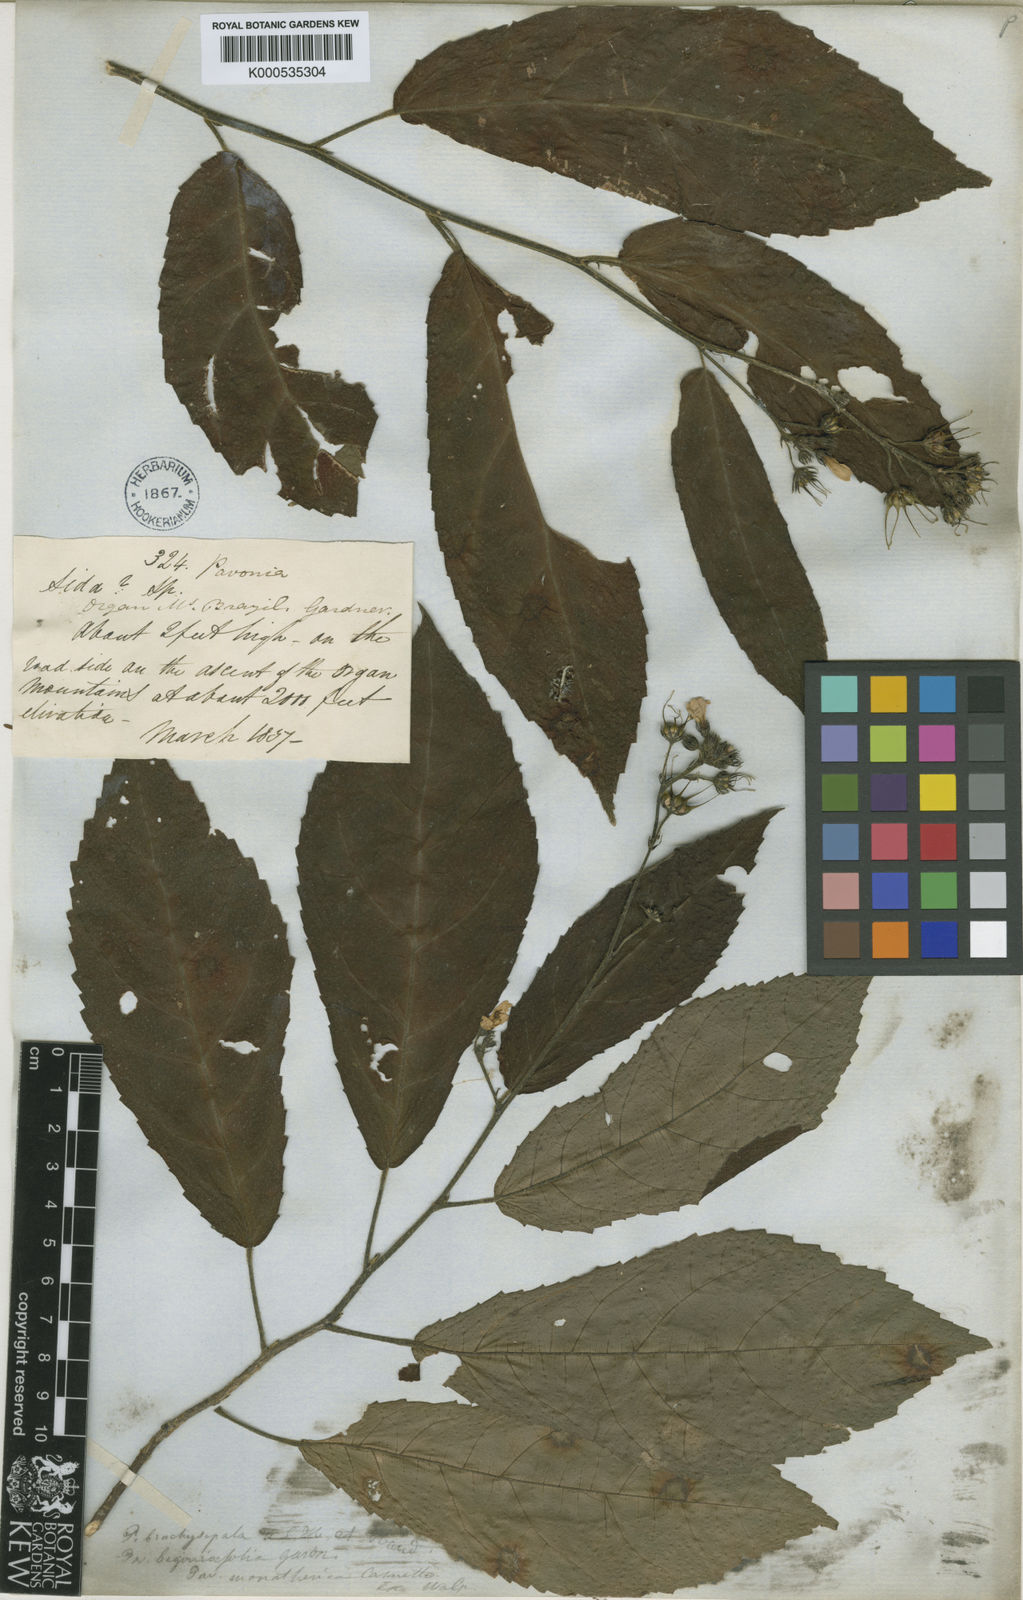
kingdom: Plantae
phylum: Tracheophyta
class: Magnoliopsida
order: Malvales
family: Malvaceae
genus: Pavonia
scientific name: Pavonia fruticosa
